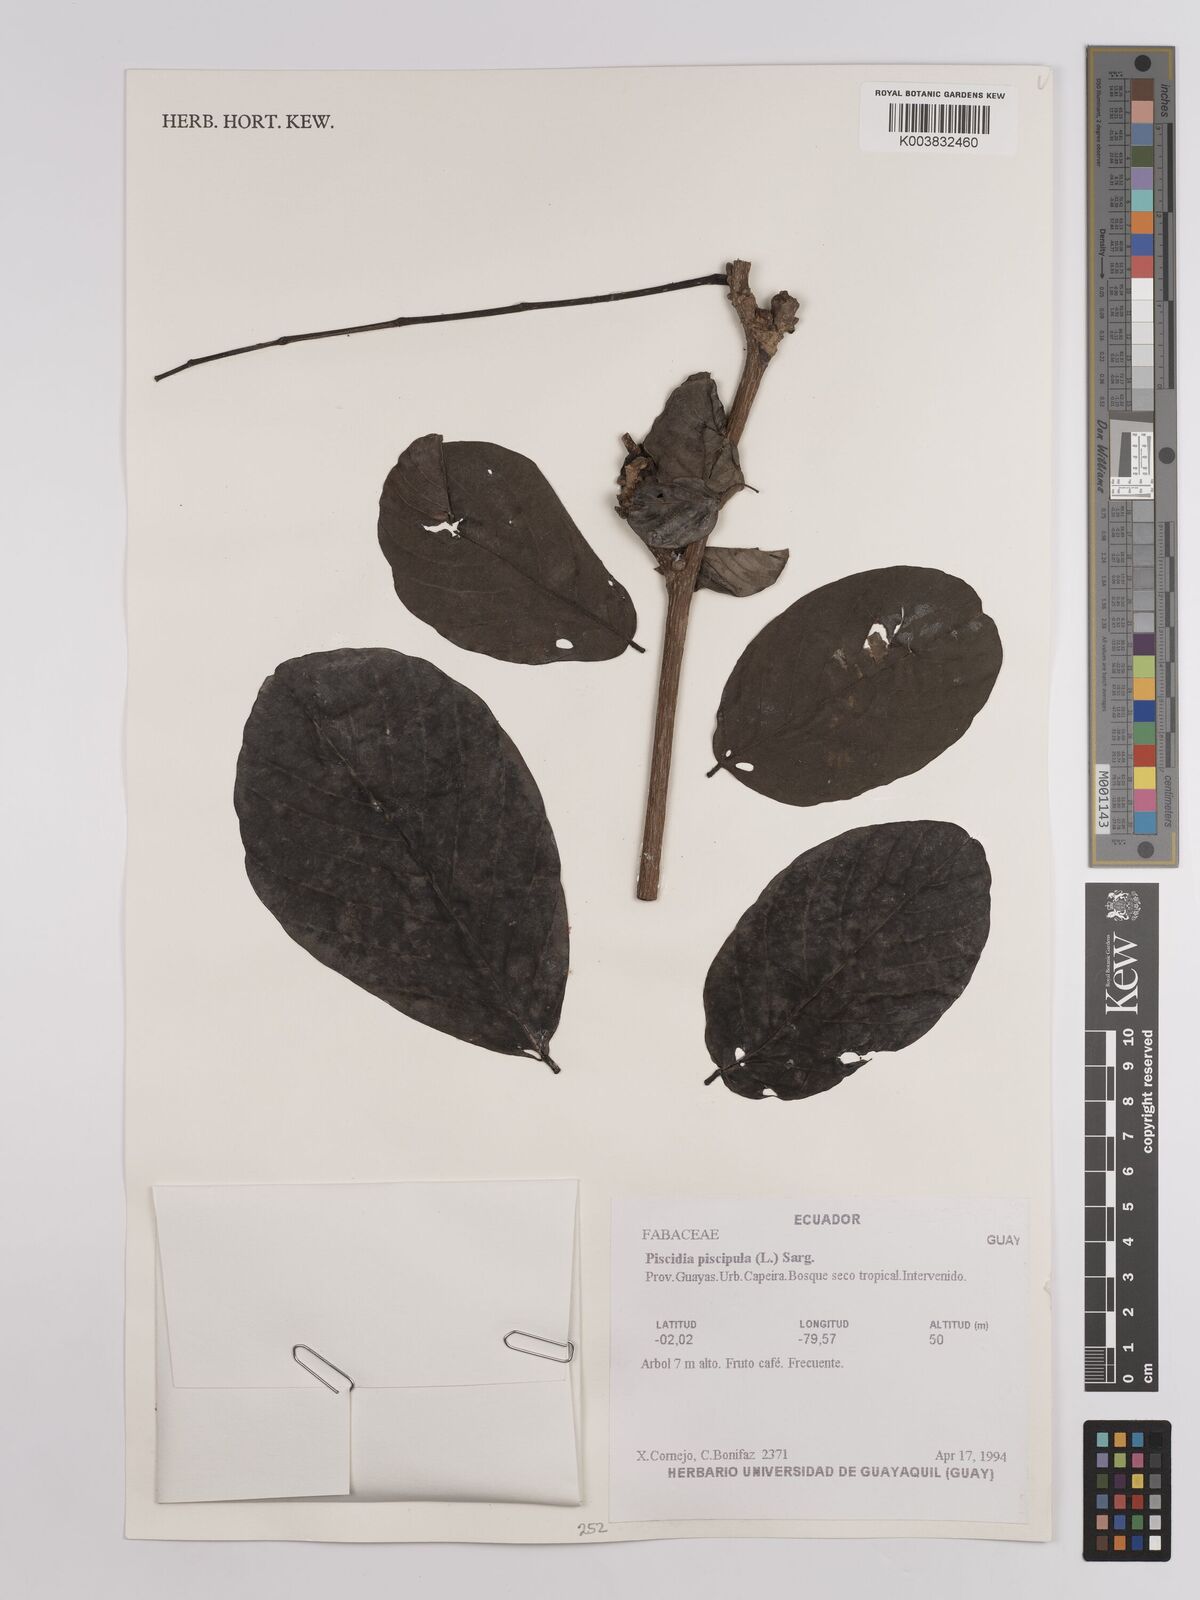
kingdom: Plantae
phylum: Tracheophyta
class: Magnoliopsida
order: Fabales
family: Fabaceae
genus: Piscidia
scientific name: Piscidia piscipula
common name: Florida fishpoison tree
